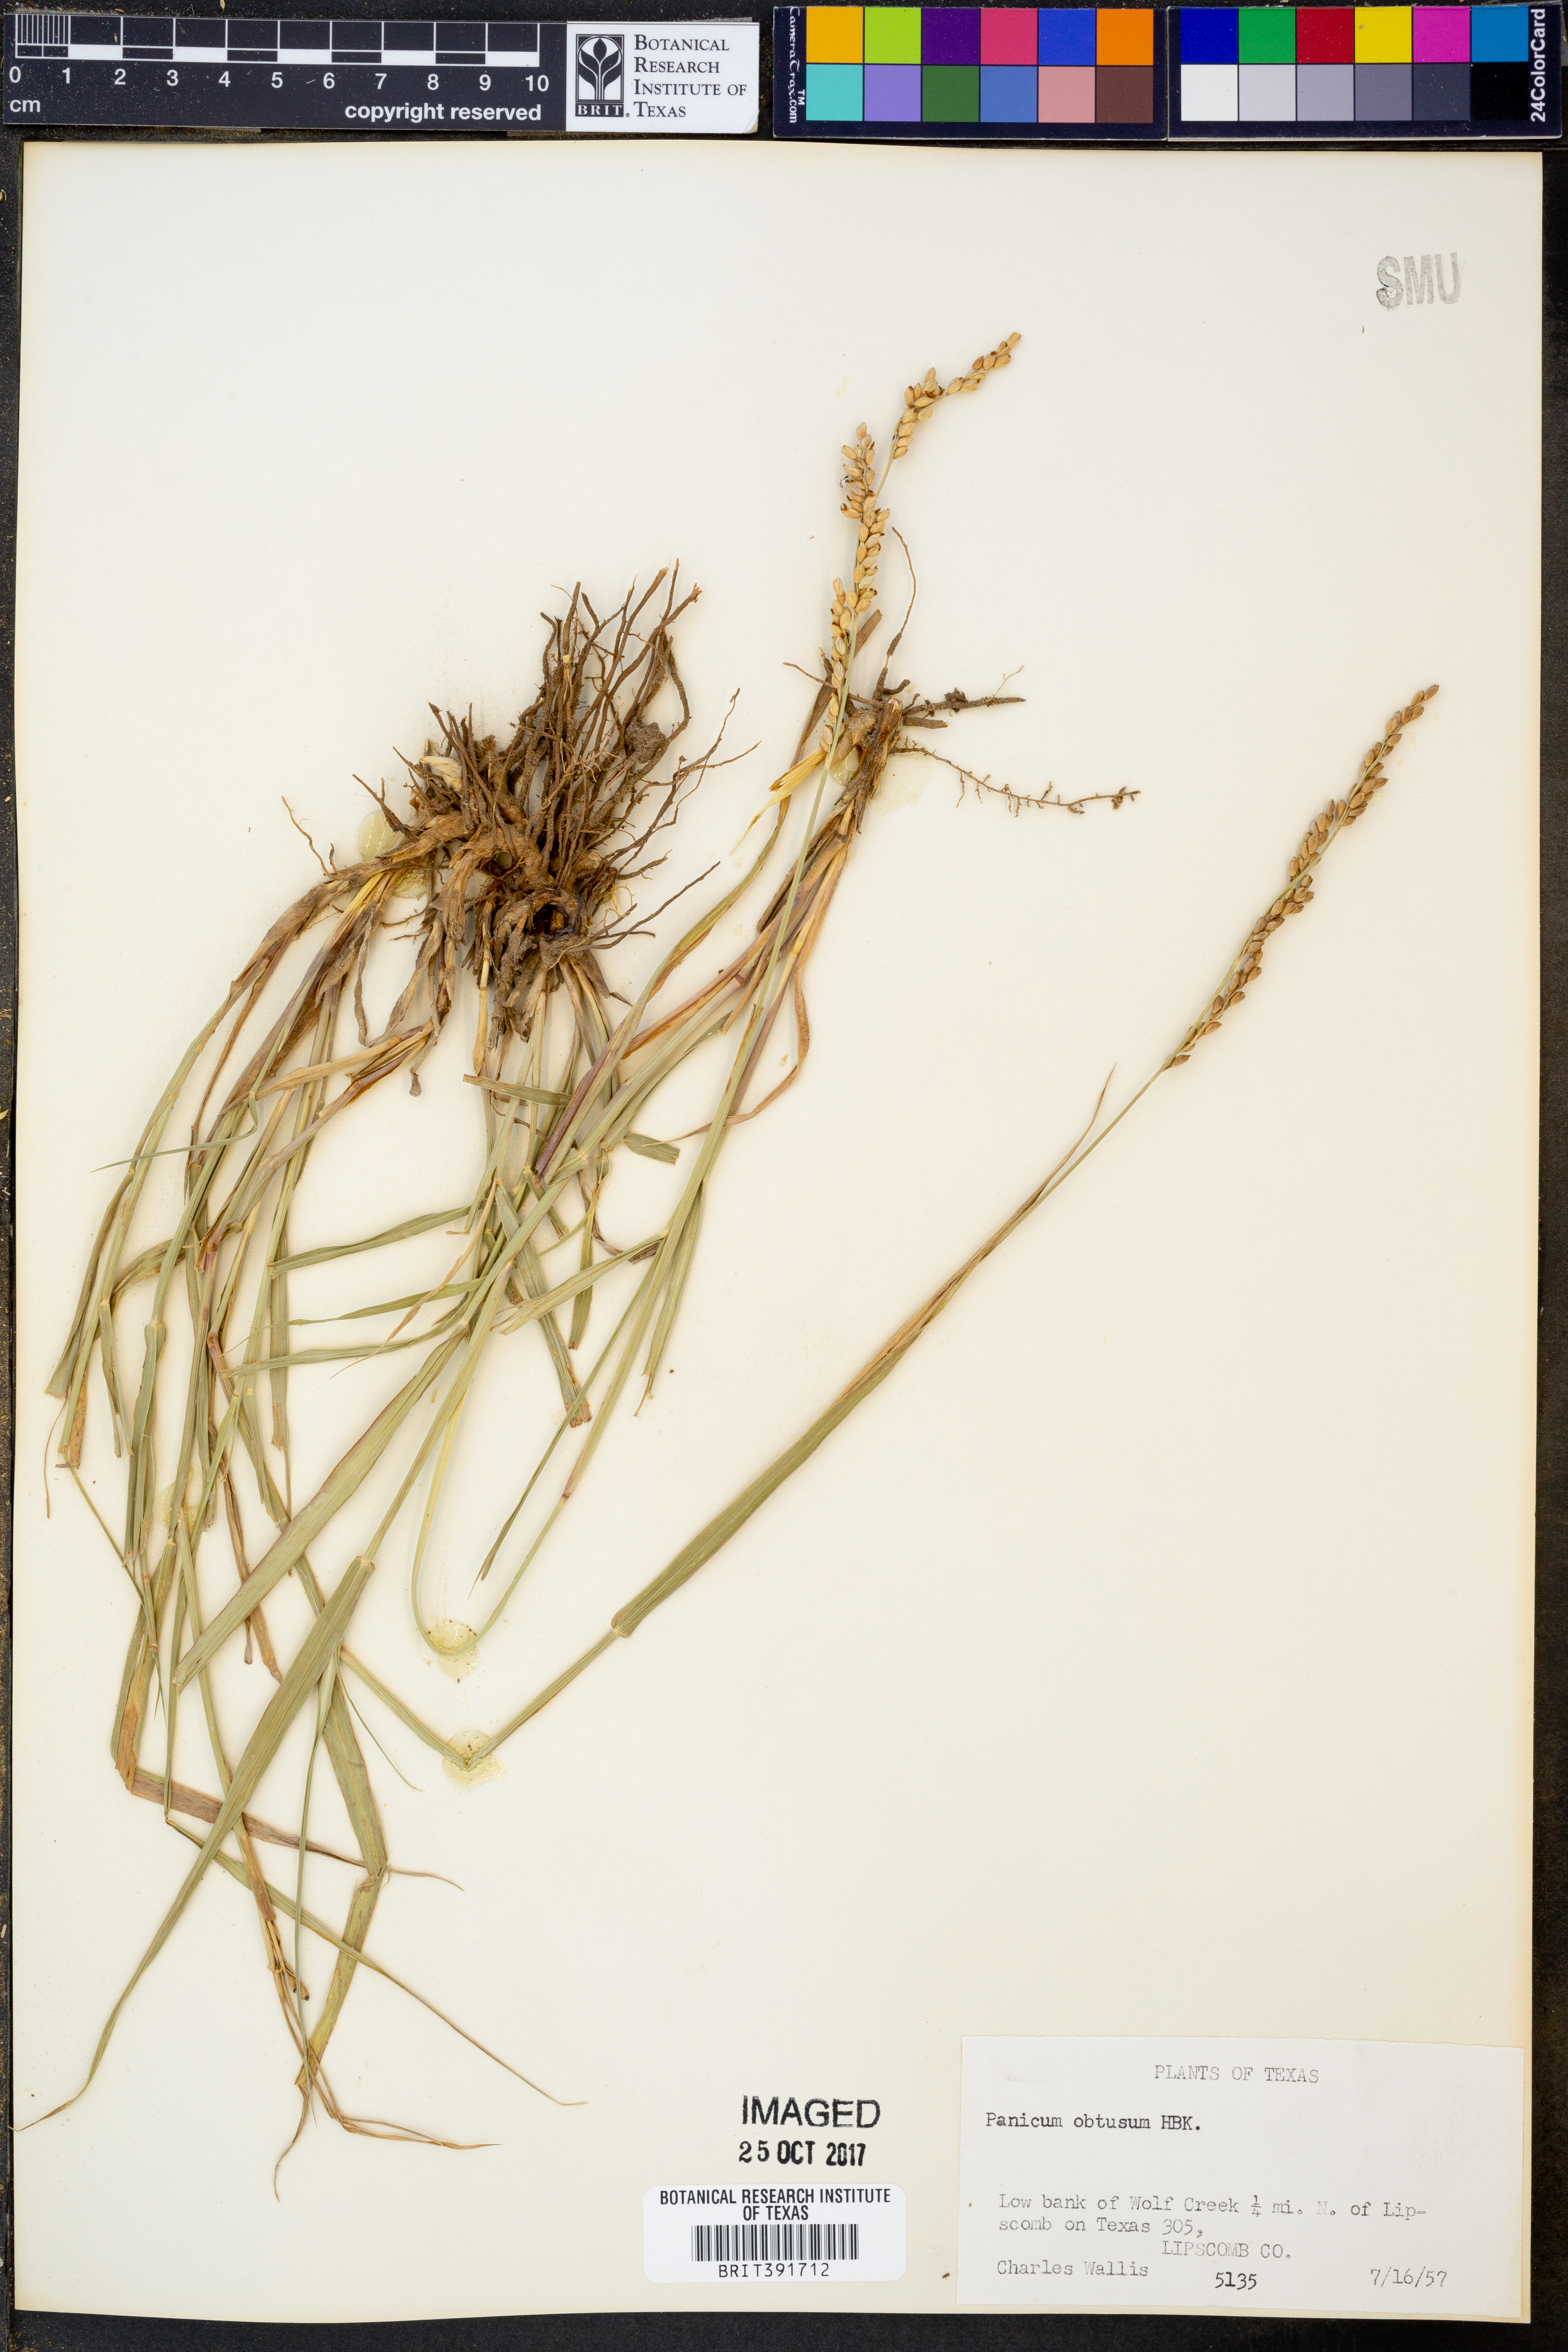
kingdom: Plantae
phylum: Tracheophyta
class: Liliopsida
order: Poales
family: Poaceae
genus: Hopia
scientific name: Hopia obtusa
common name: Vine-mesquite
